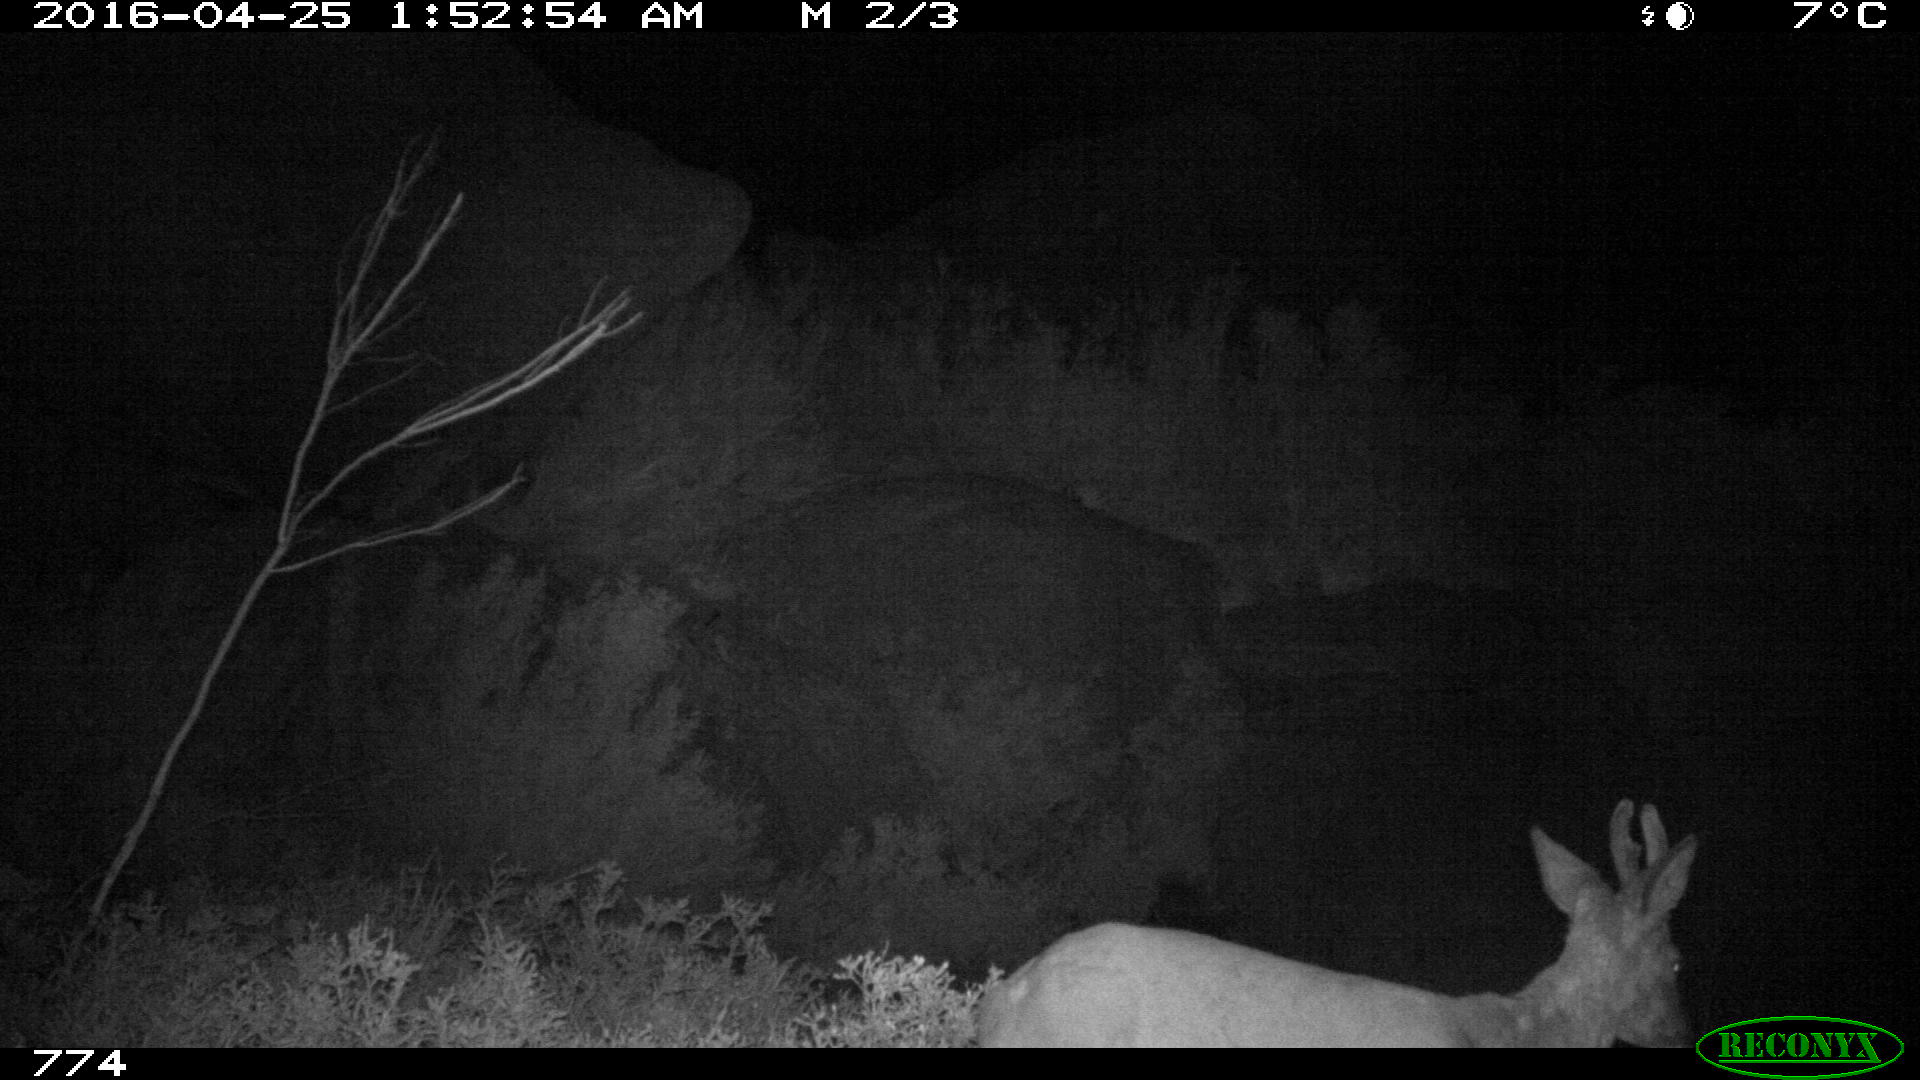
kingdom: Animalia
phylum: Chordata
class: Mammalia
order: Artiodactyla
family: Cervidae
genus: Capreolus
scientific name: Capreolus capreolus
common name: Western roe deer
